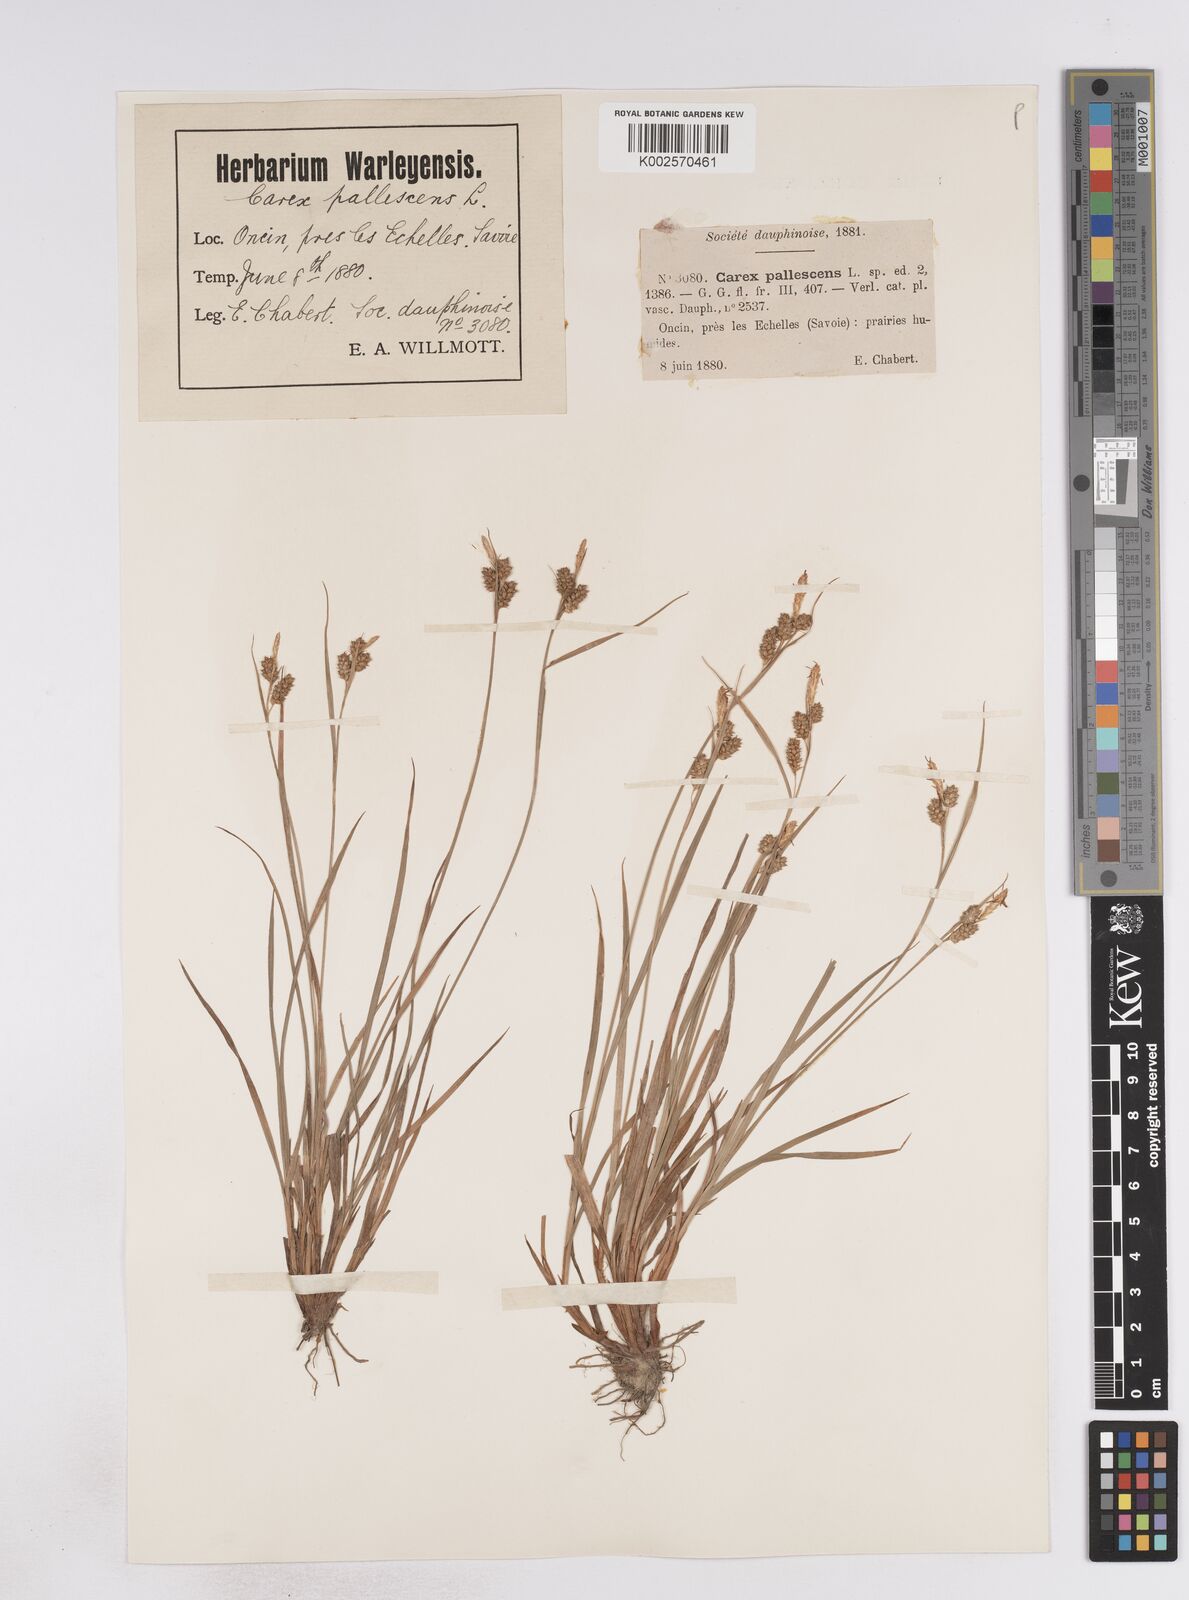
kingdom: Plantae
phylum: Tracheophyta
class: Liliopsida
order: Poales
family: Cyperaceae
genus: Carex
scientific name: Carex pallescens
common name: Pale sedge
